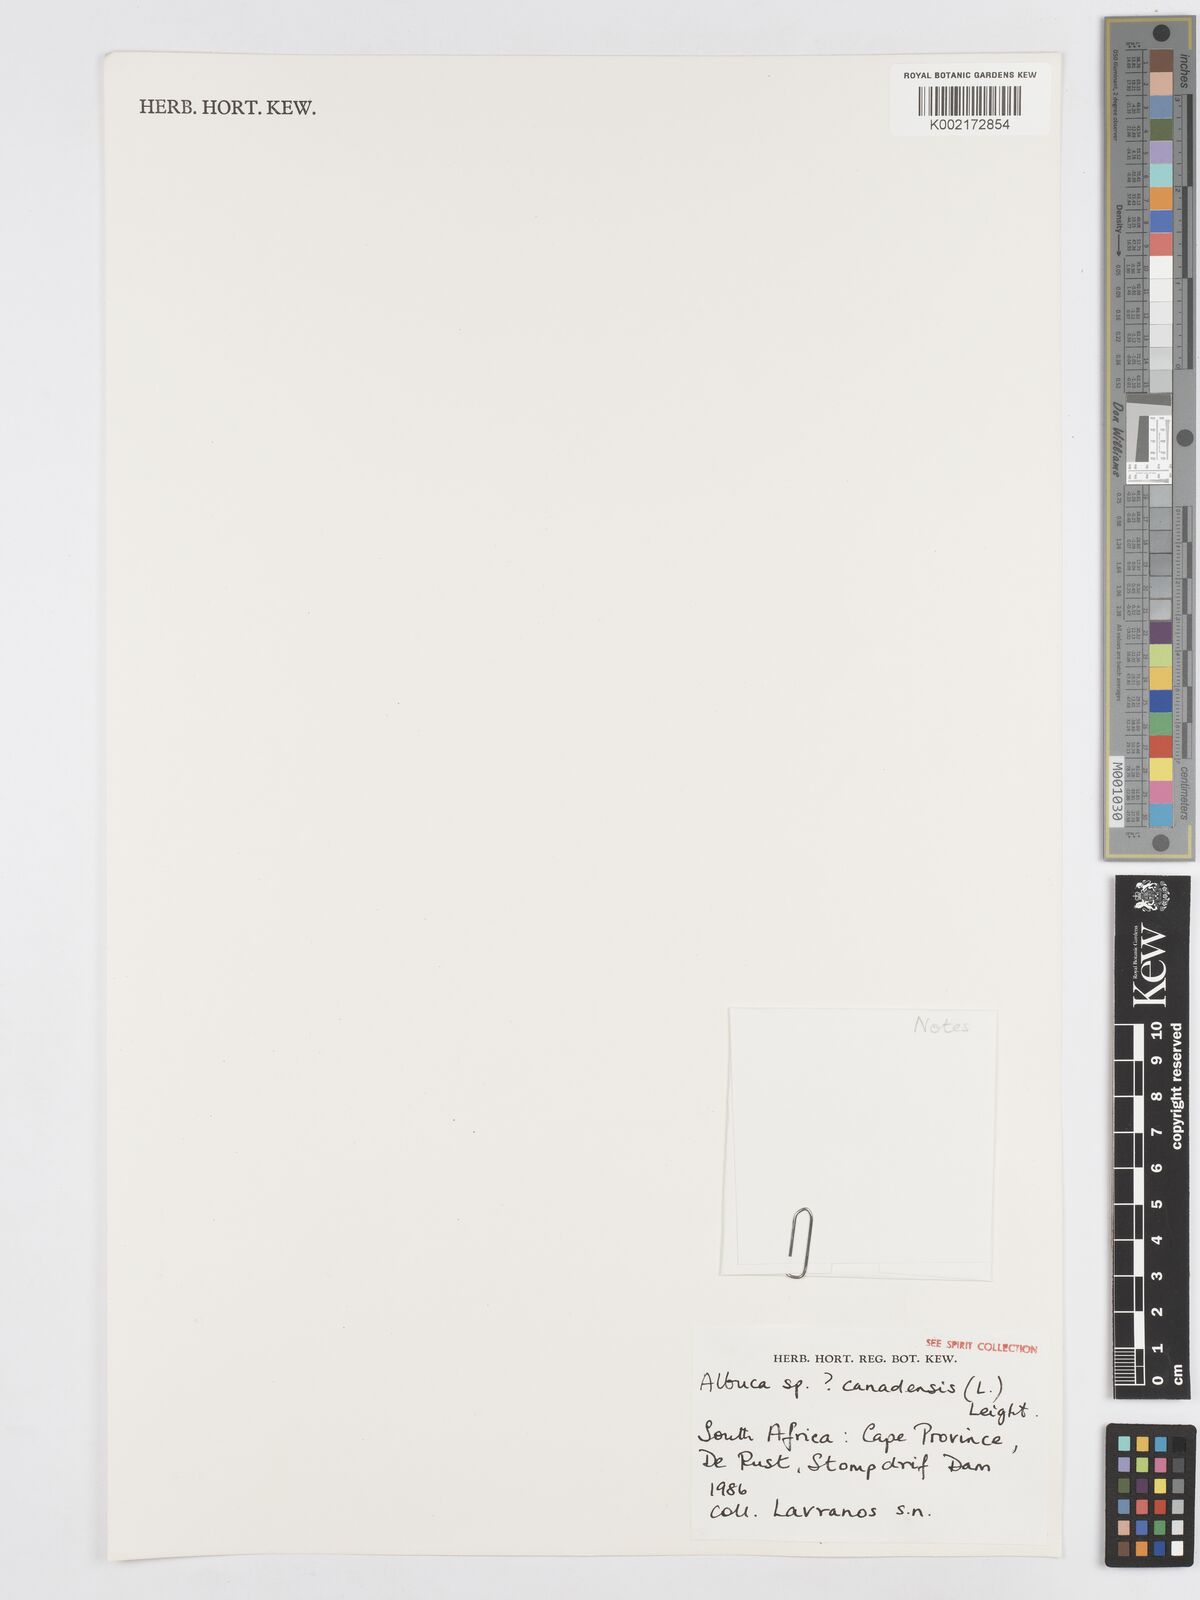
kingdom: Plantae
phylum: Tracheophyta
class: Liliopsida
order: Asparagales
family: Asparagaceae
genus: Albuca
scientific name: Albuca canadensis
